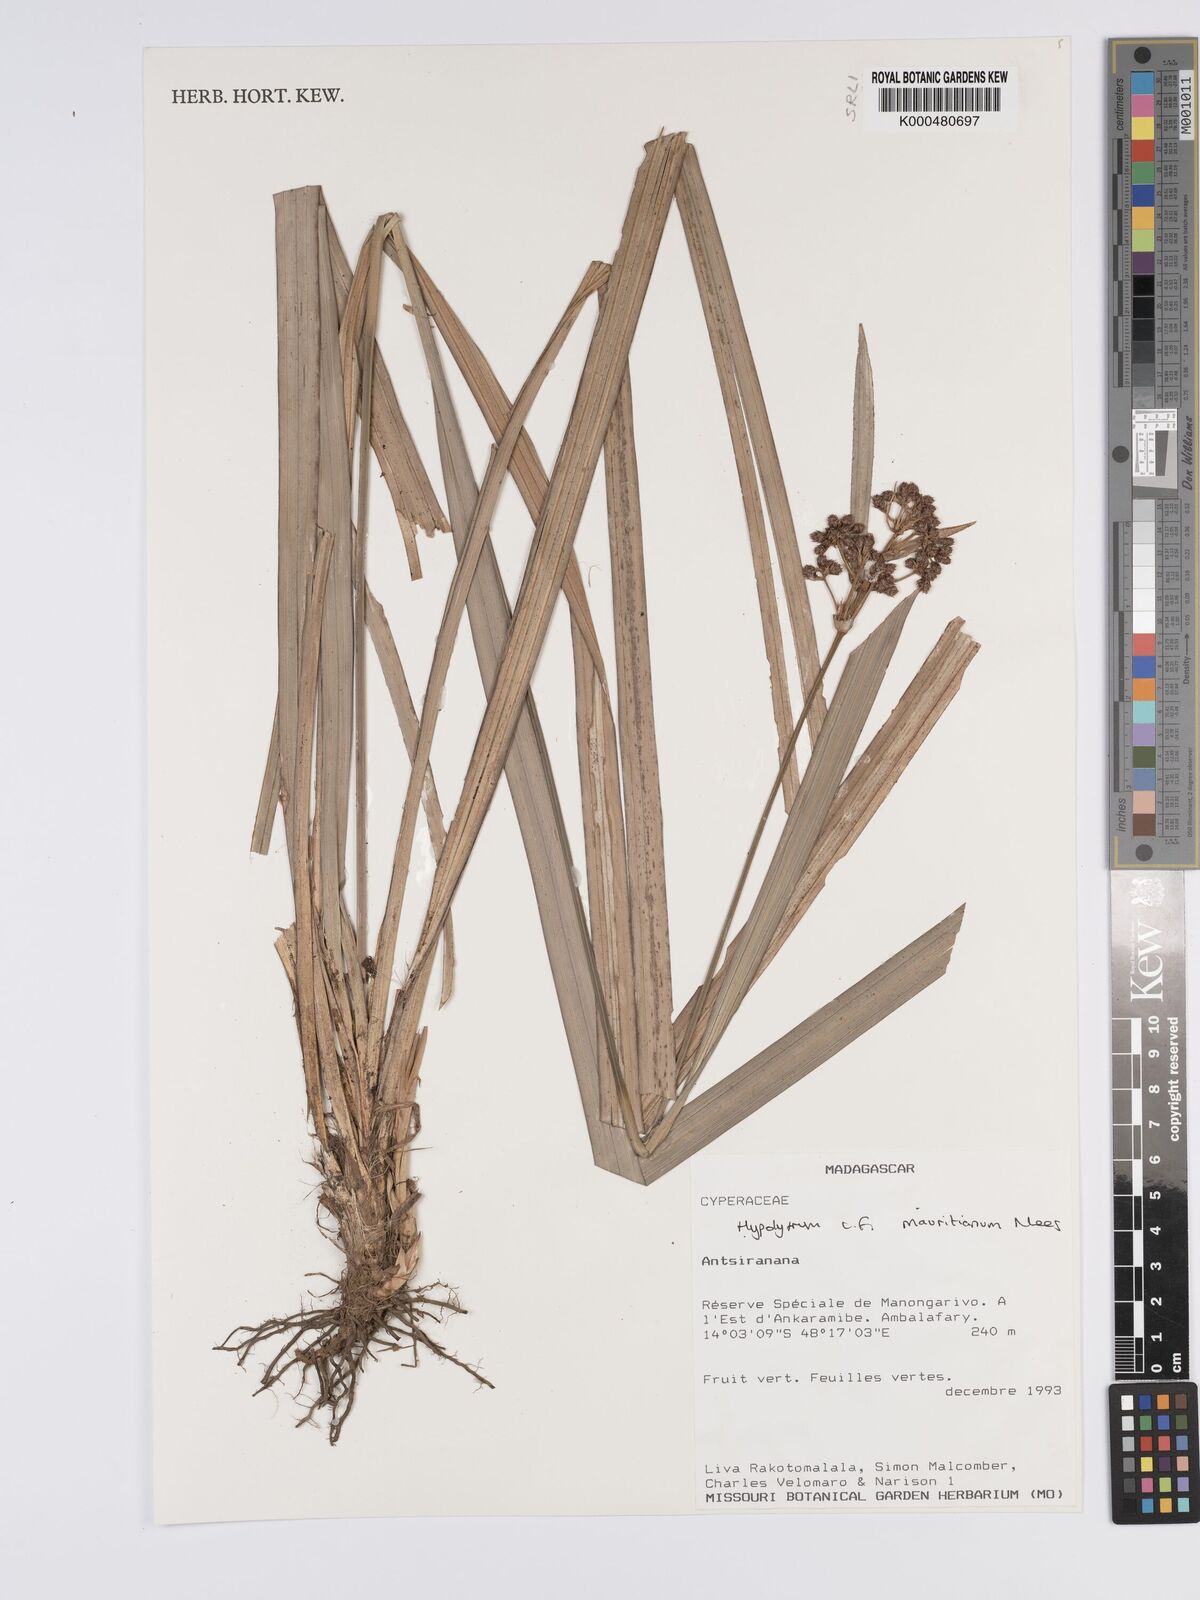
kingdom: Plantae
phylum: Tracheophyta
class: Liliopsida
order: Poales
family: Cyperaceae
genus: Hypolytrum
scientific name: Hypolytrum mauritianum
